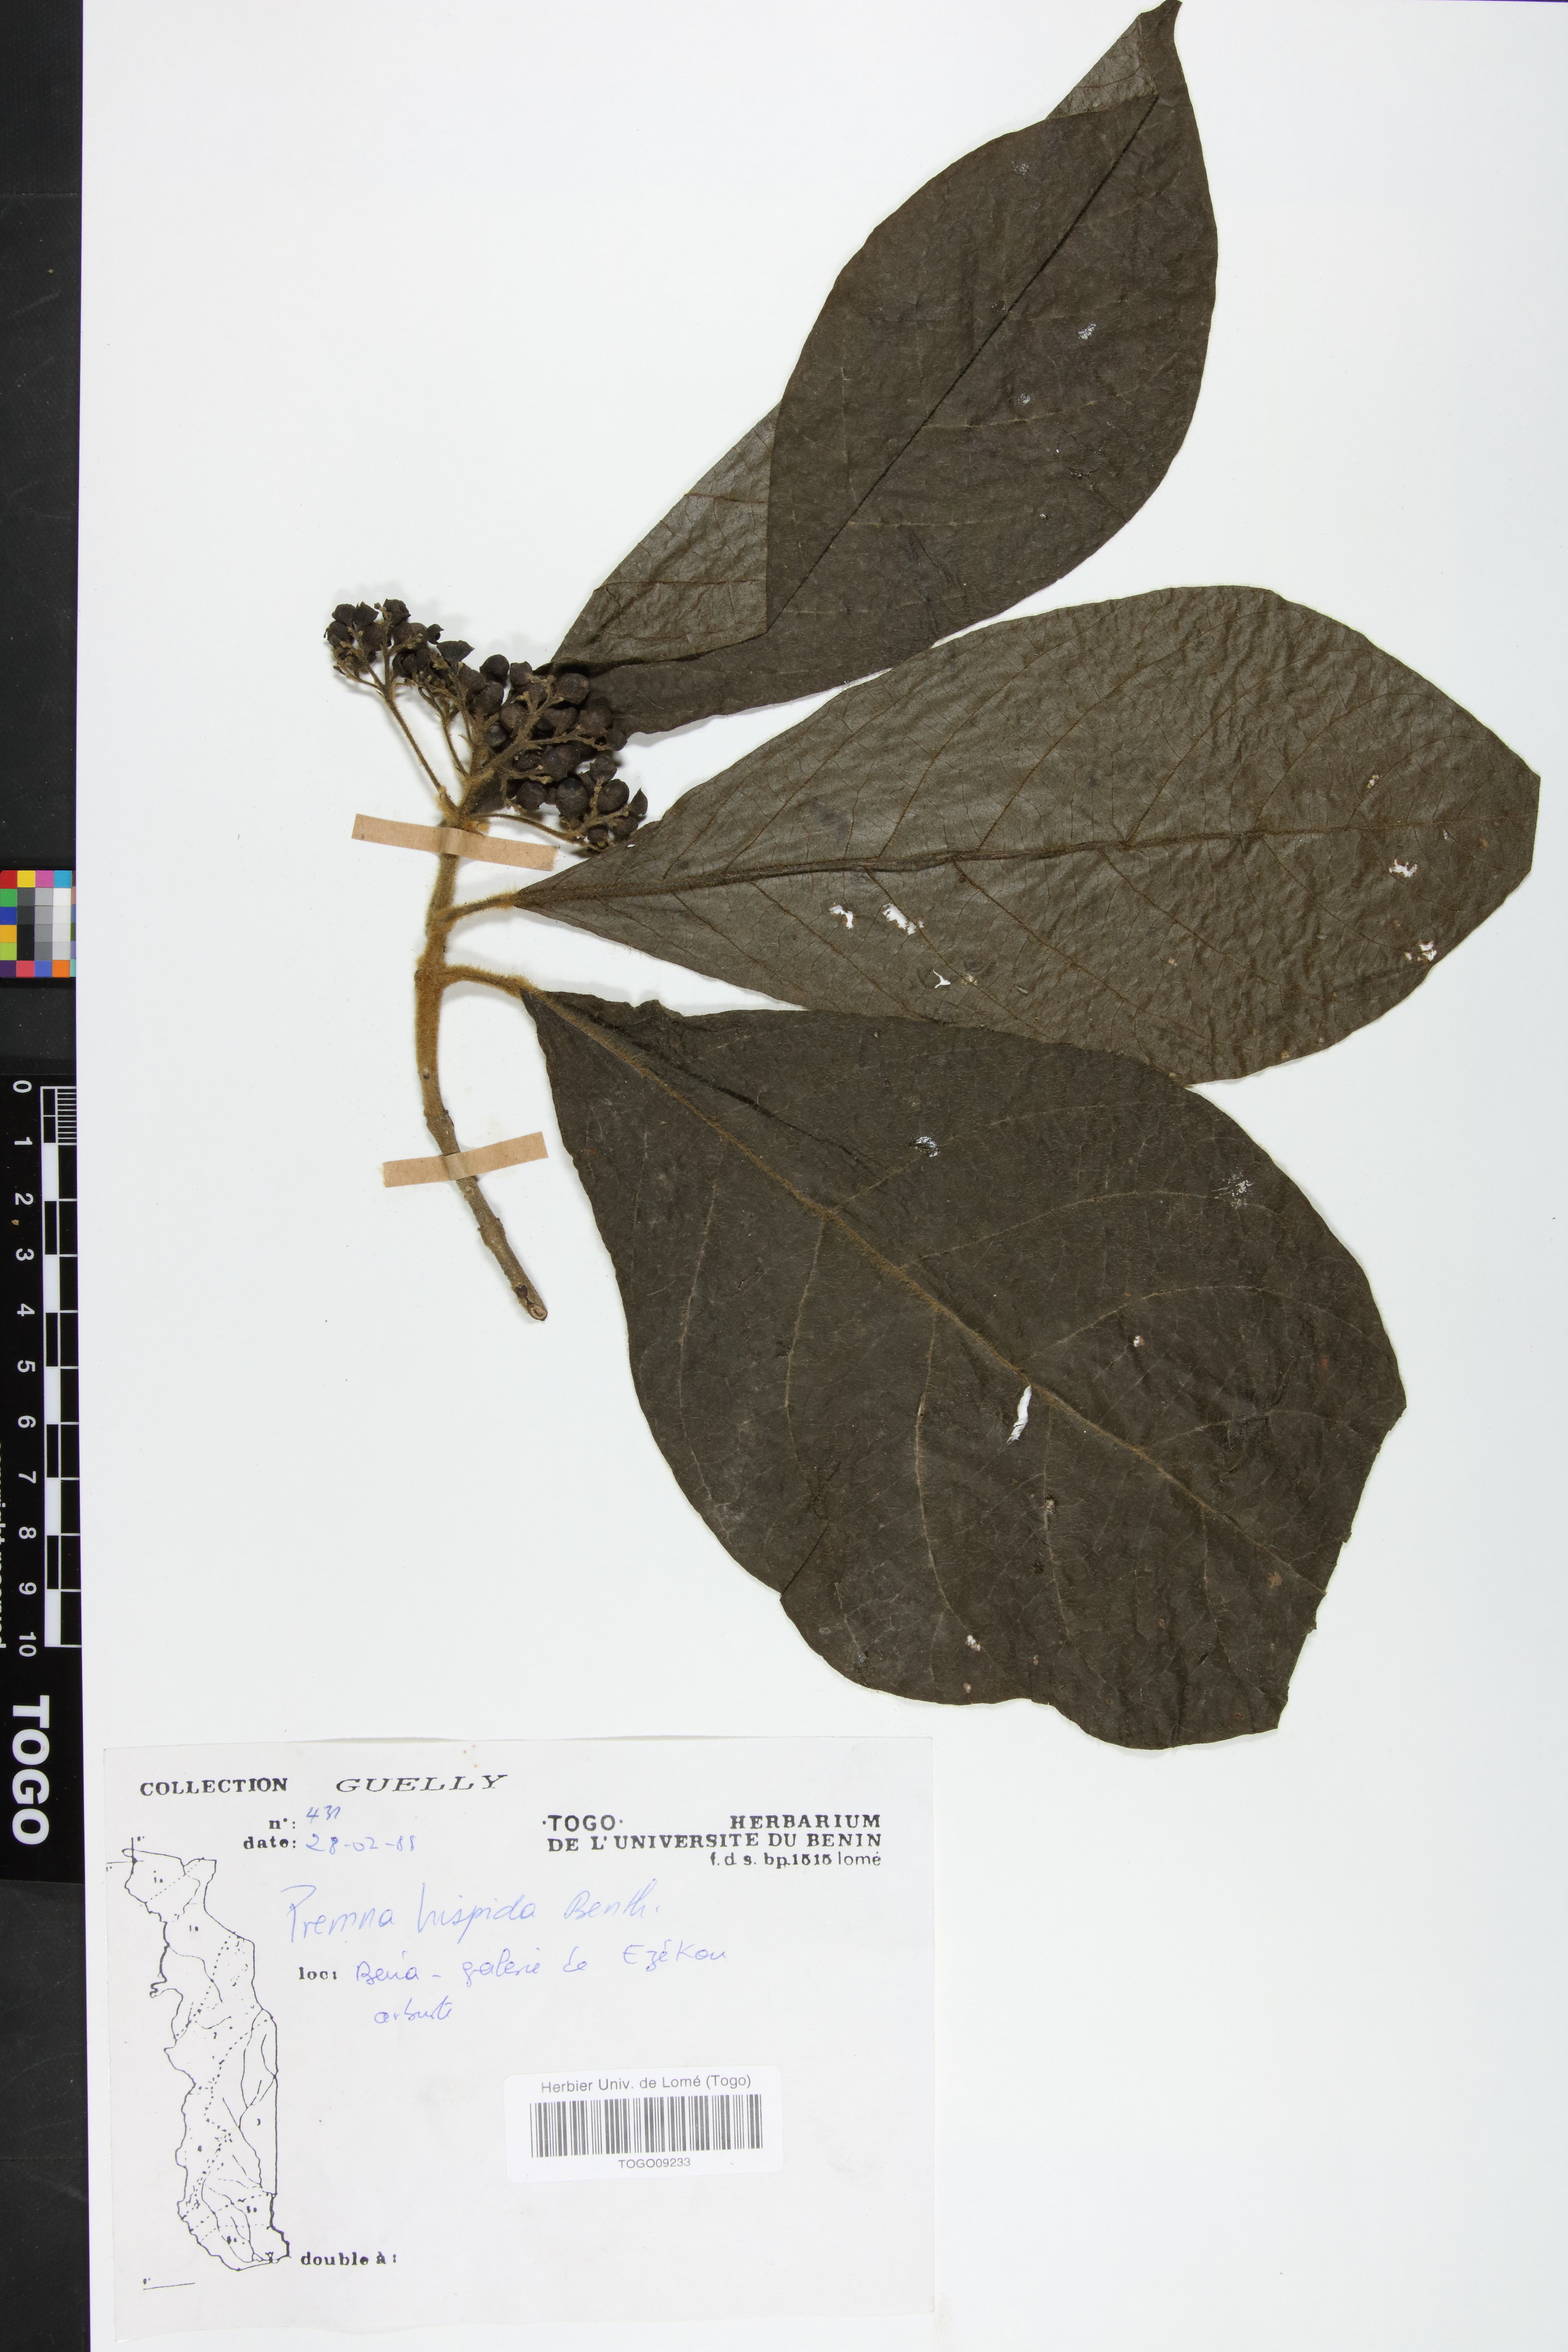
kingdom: Plantae
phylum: Tracheophyta
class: Magnoliopsida
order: Lamiales
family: Lamiaceae
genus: Premna
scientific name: Premna hispida
